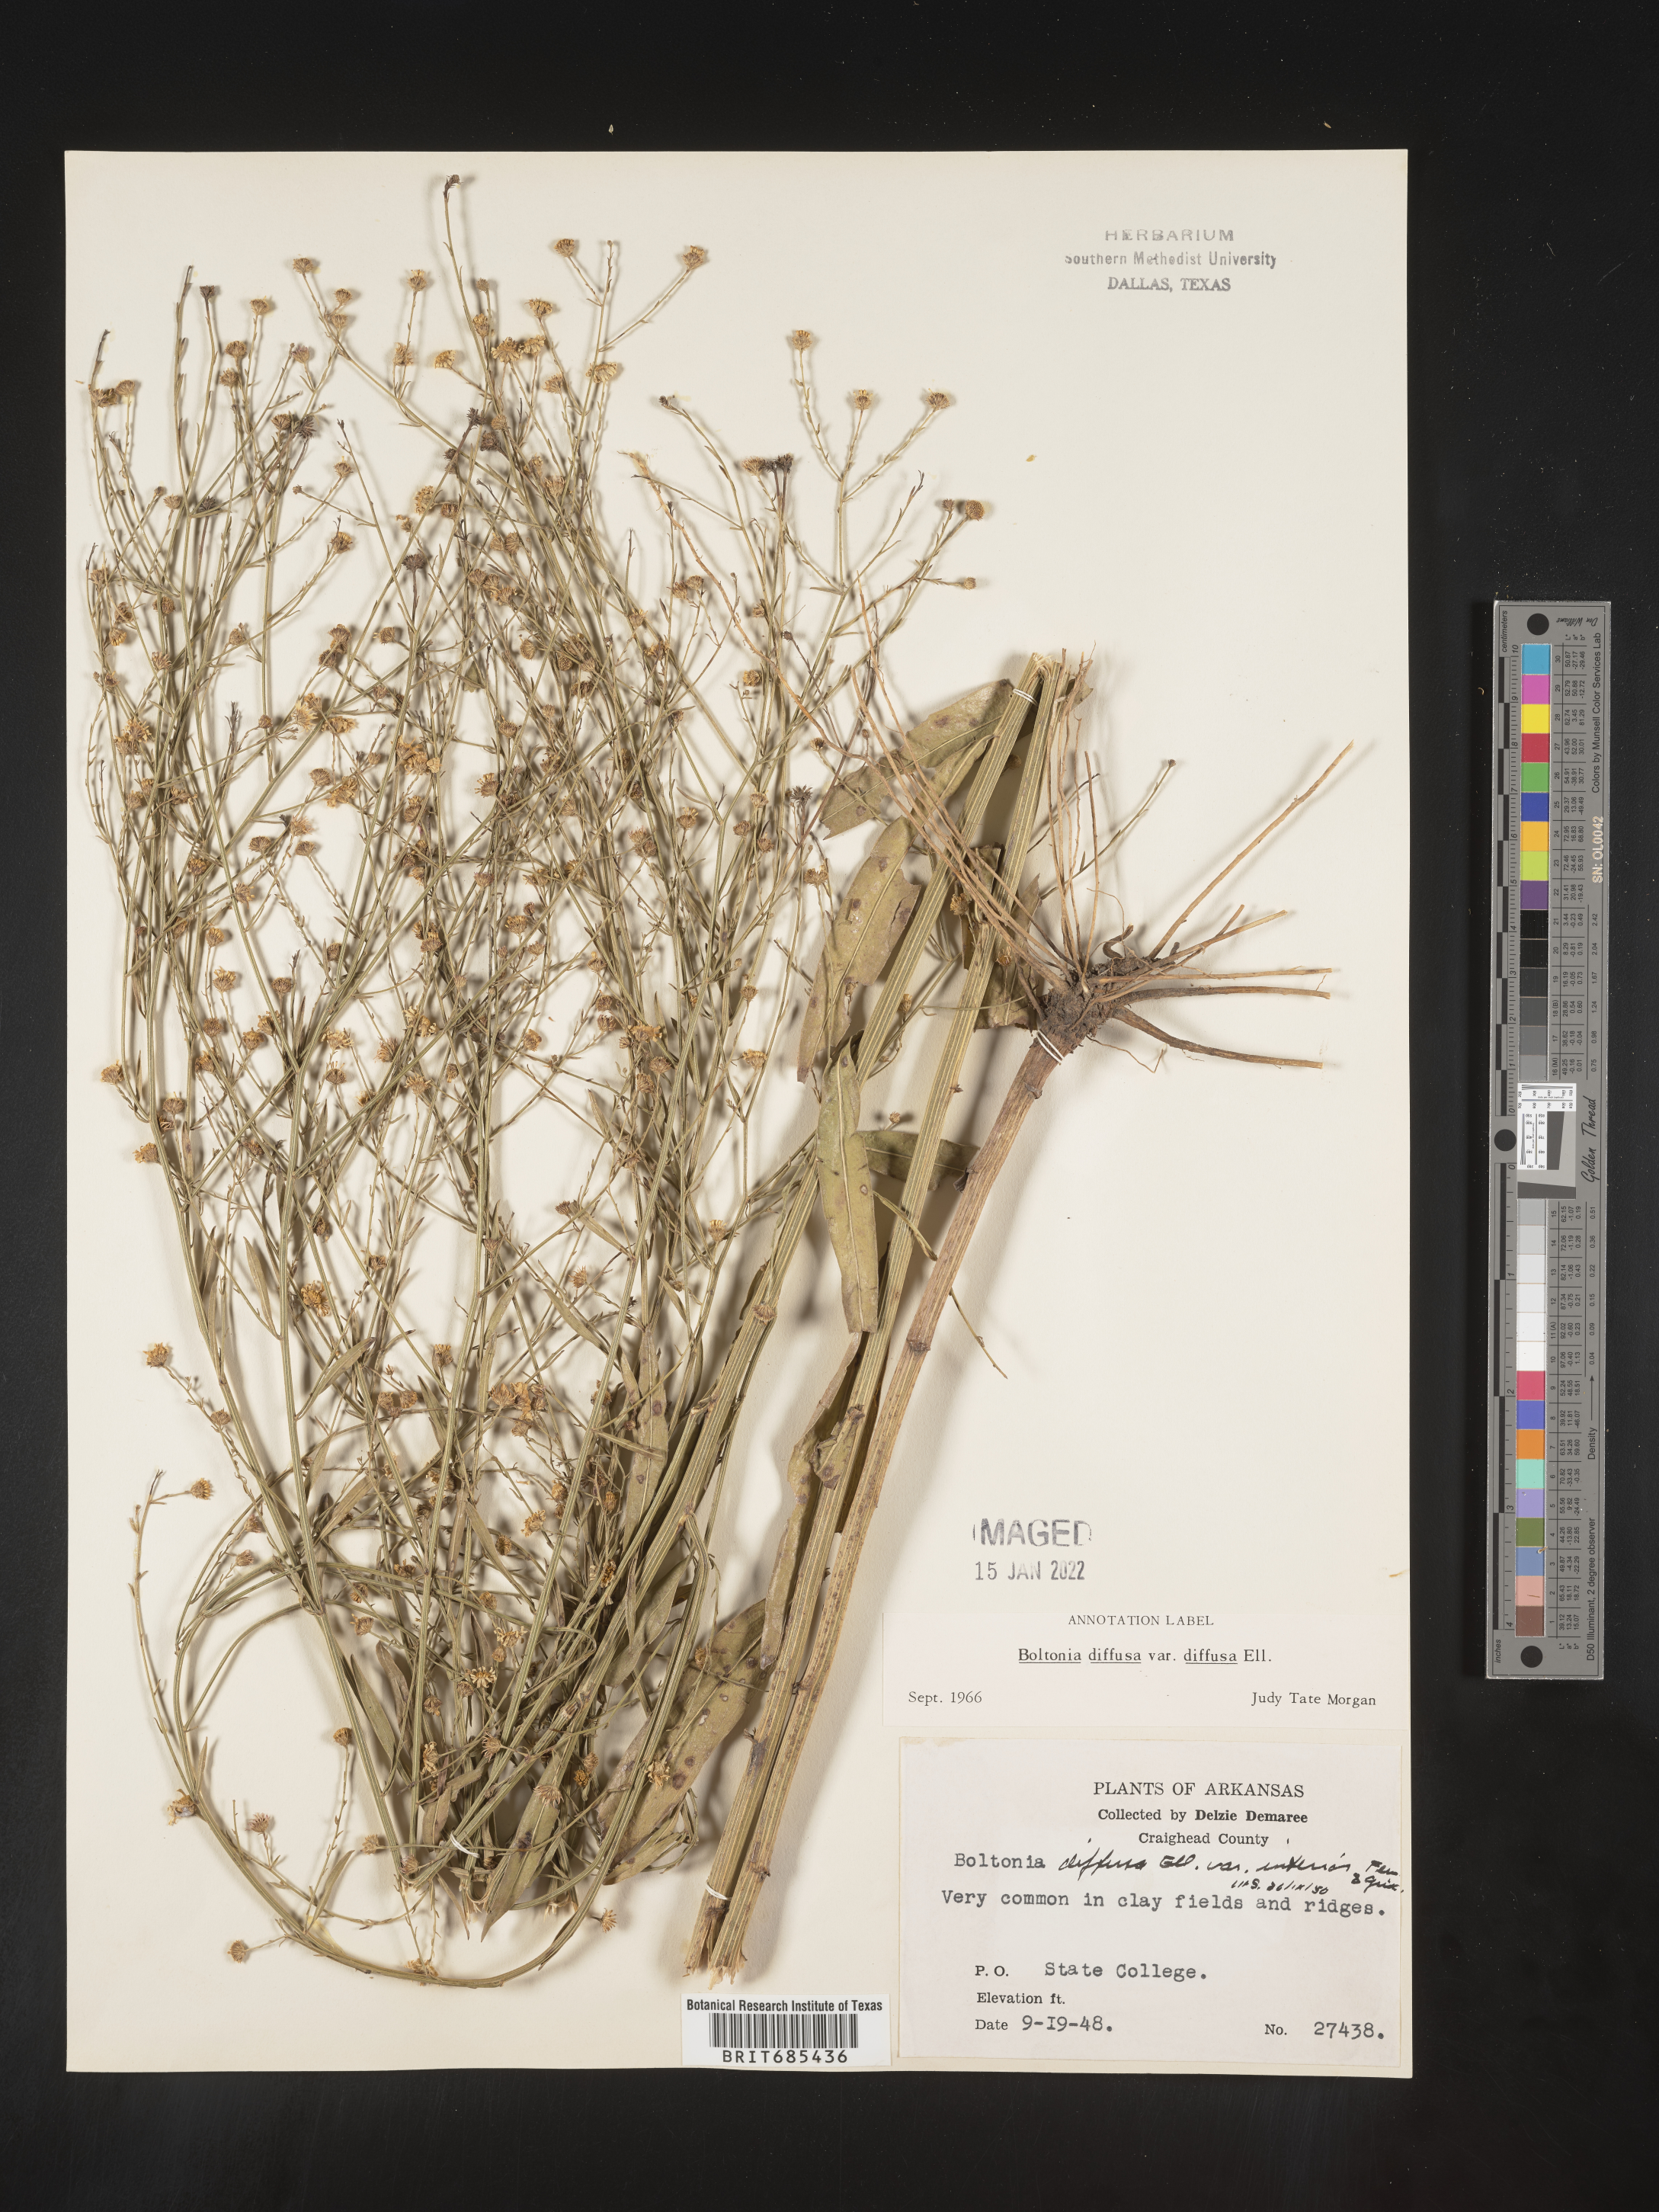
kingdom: Plantae
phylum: Tracheophyta
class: Magnoliopsida
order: Asterales
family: Asteraceae
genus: Boltonia
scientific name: Boltonia diffusa
